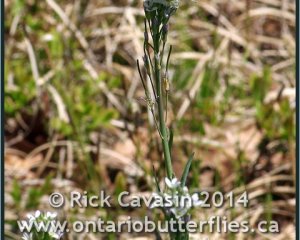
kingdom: Animalia
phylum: Arthropoda
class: Insecta
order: Lepidoptera
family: Pieridae
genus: Euchloe
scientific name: Euchloe olympia
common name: Olympia Marble
